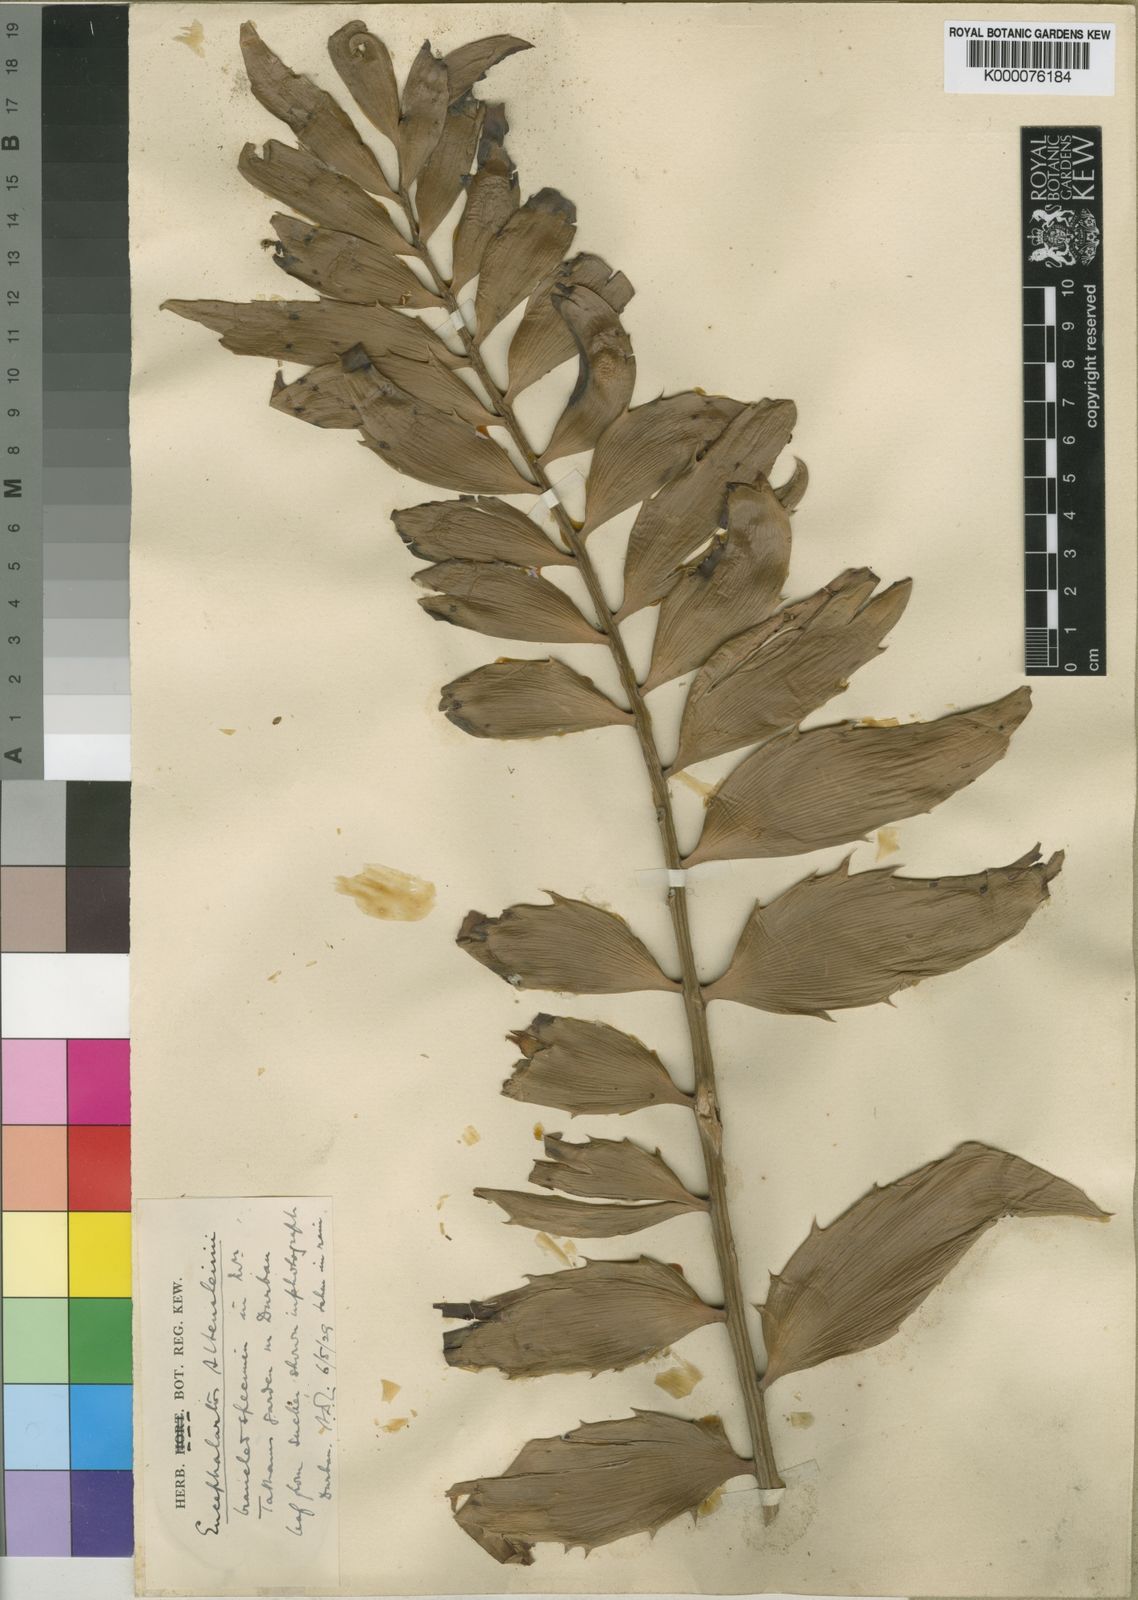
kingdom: Plantae
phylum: Tracheophyta
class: Cycadopsida
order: Cycadales
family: Zamiaceae
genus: Encephalartos
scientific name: Encephalartos woodii
